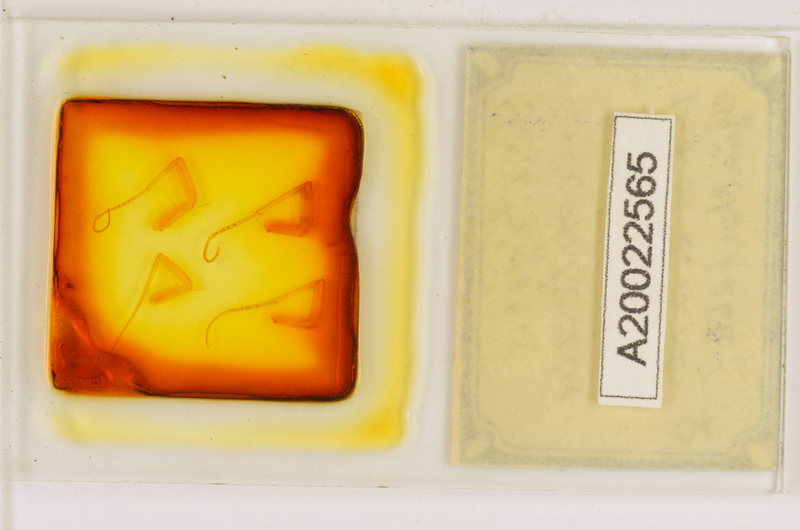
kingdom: Animalia
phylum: Arthropoda
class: Chilopoda
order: Scutigeromorpha
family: Scutigeridae
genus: Scutigera
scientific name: Scutigera coleoptrata
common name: House centipede
